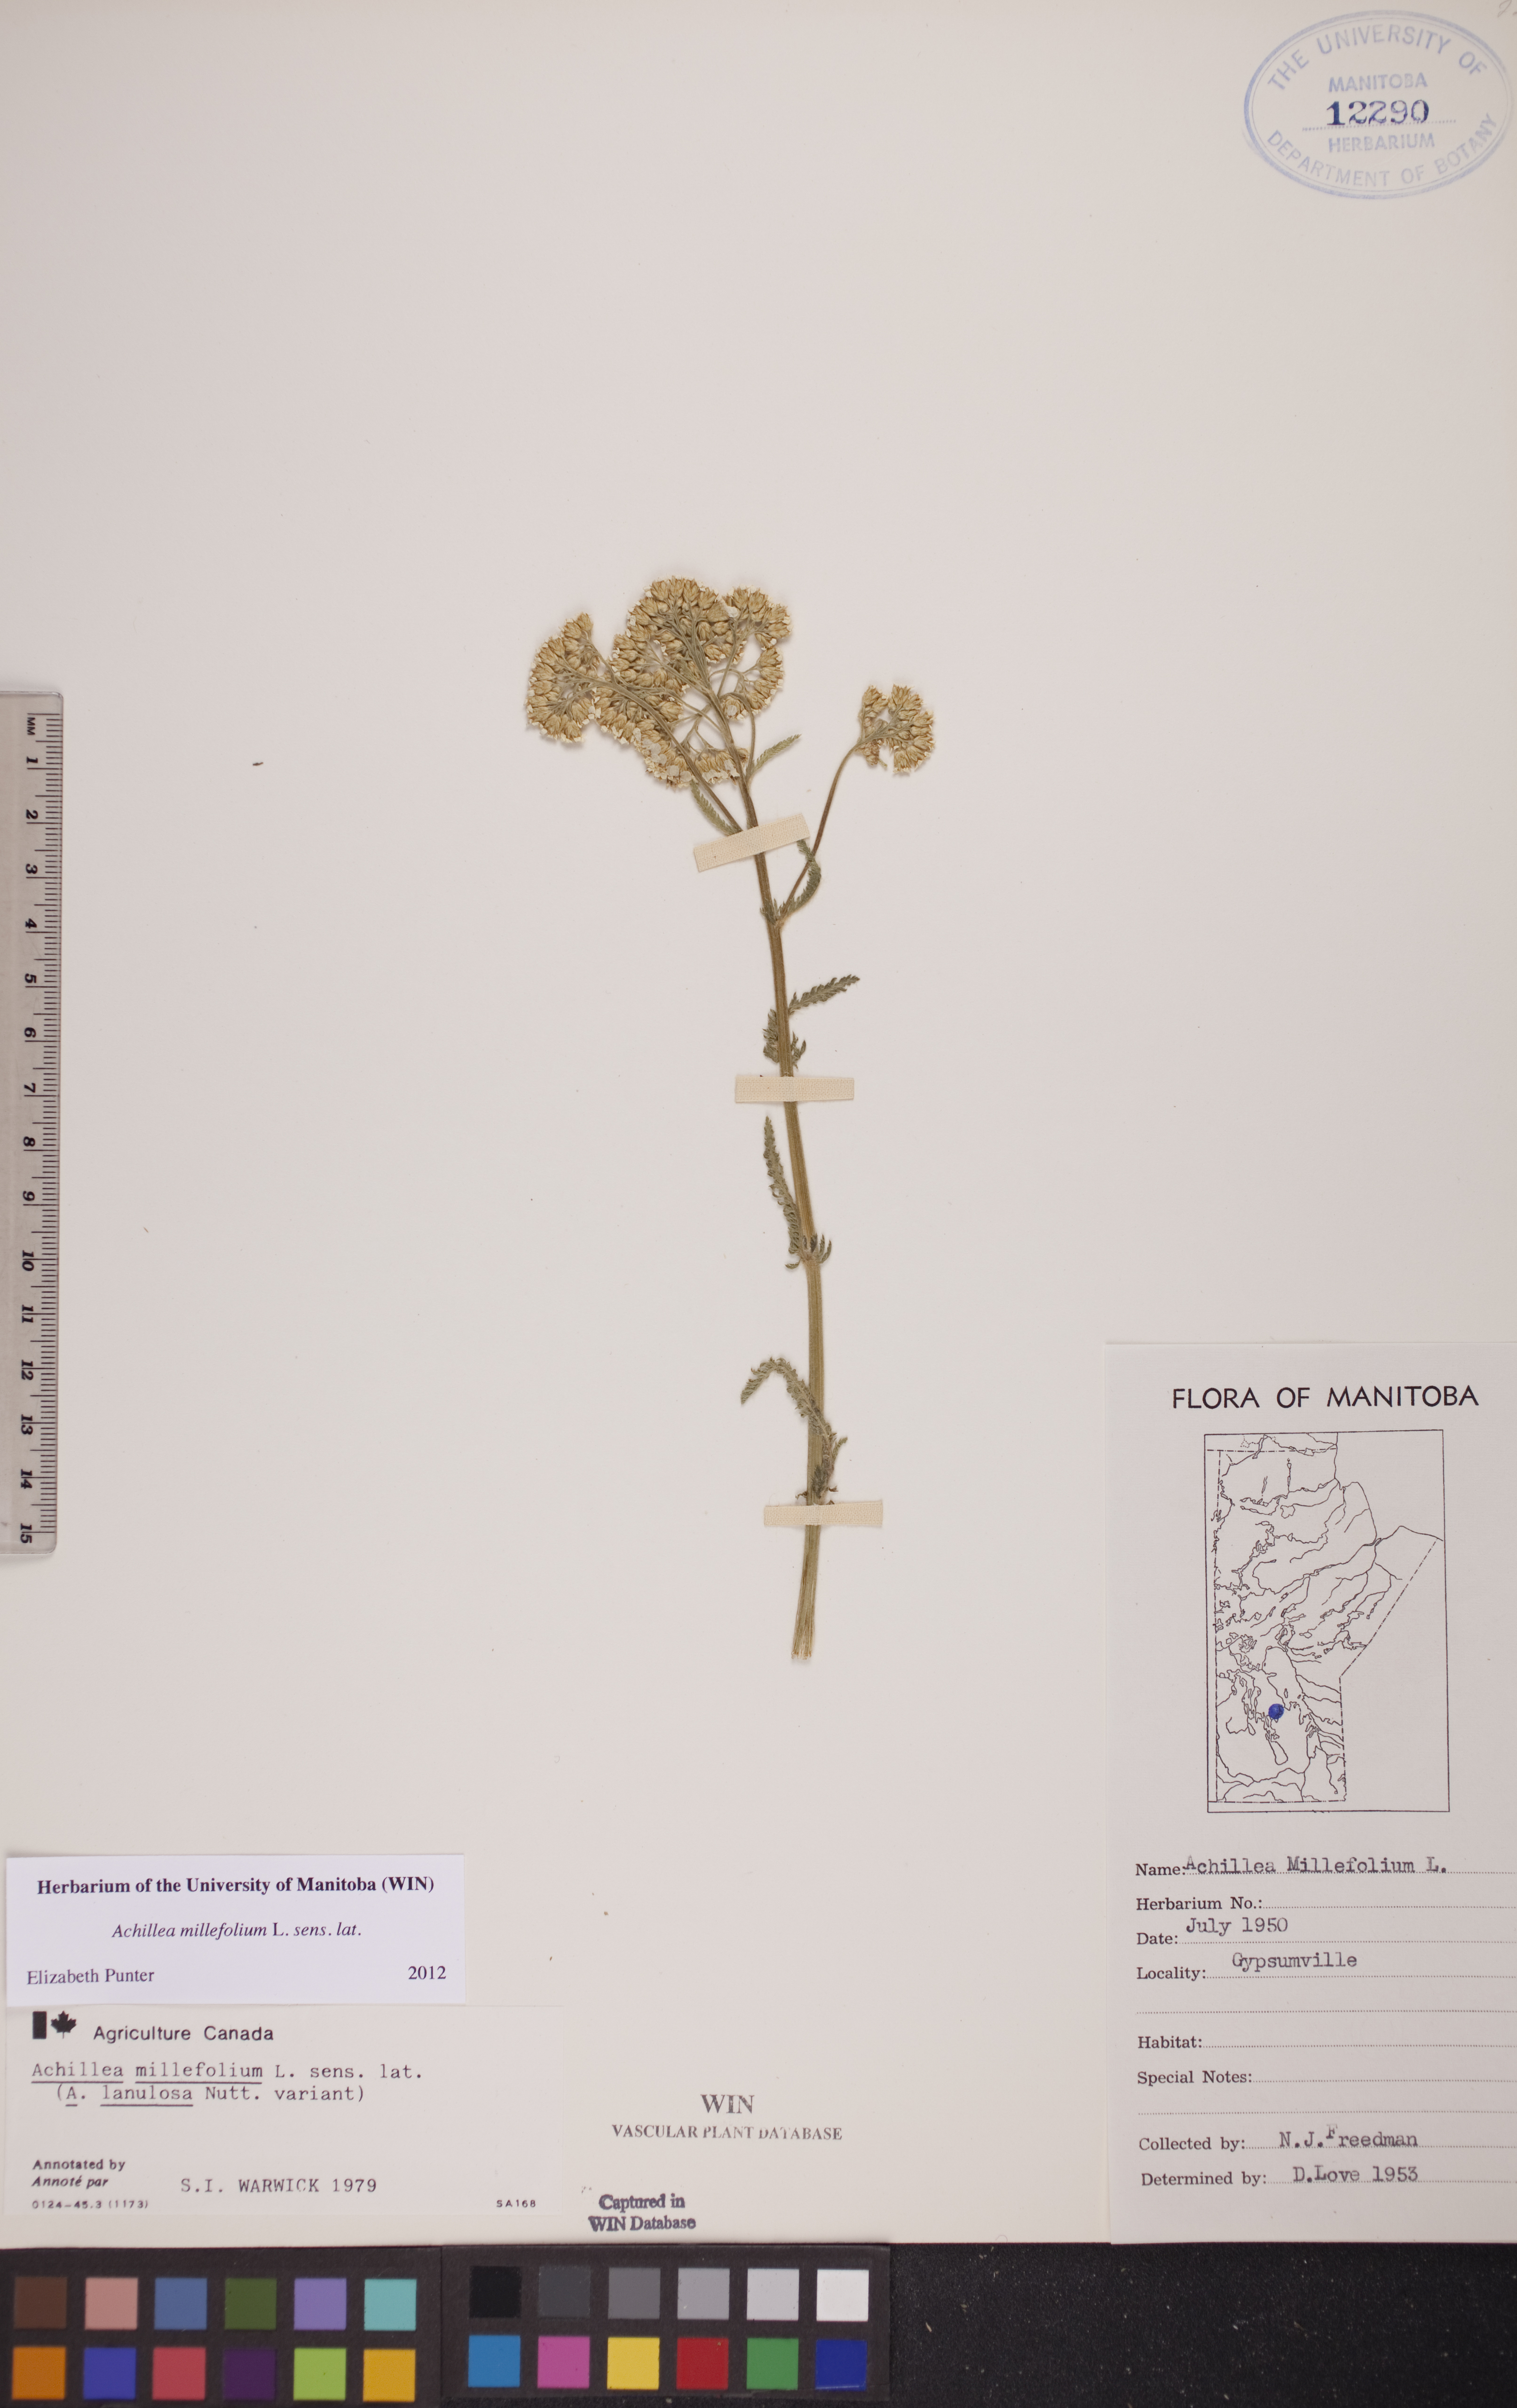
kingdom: Plantae
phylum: Tracheophyta
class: Magnoliopsida
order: Asterales
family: Asteraceae
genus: Achillea
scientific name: Achillea millefolium
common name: Yarrow
